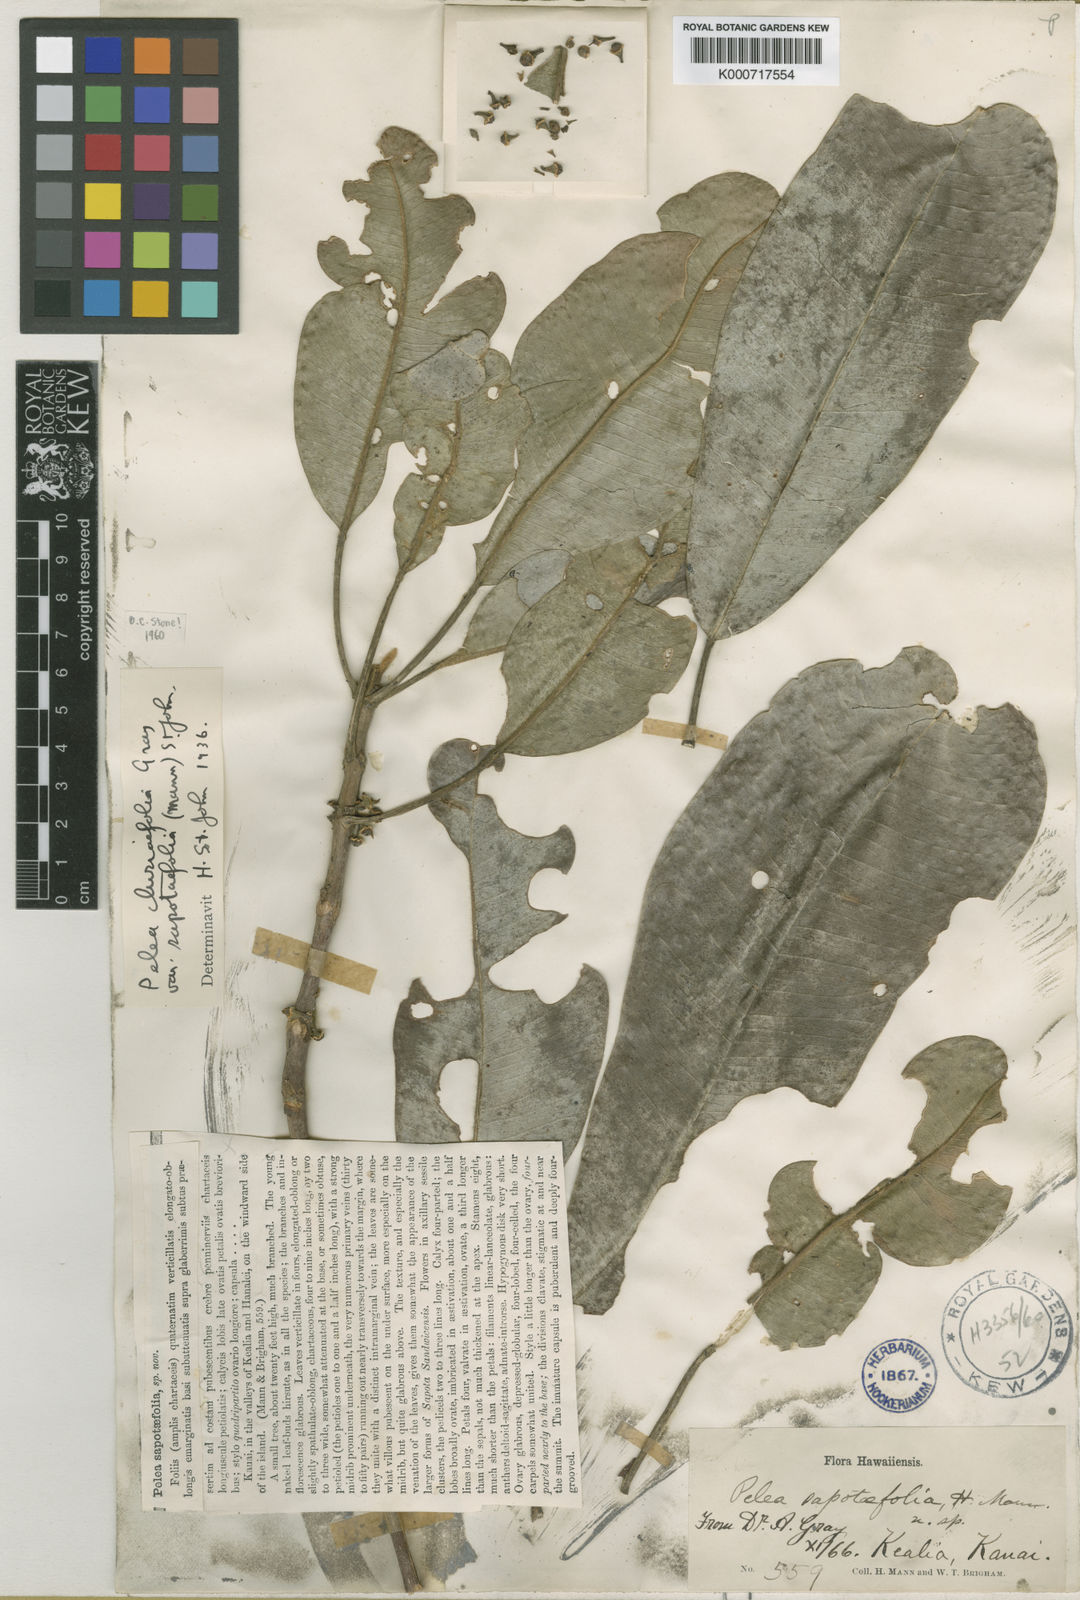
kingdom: Plantae
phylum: Tracheophyta
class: Magnoliopsida
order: Sapindales
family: Rutaceae
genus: Melicope
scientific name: Melicope clusiifolia
